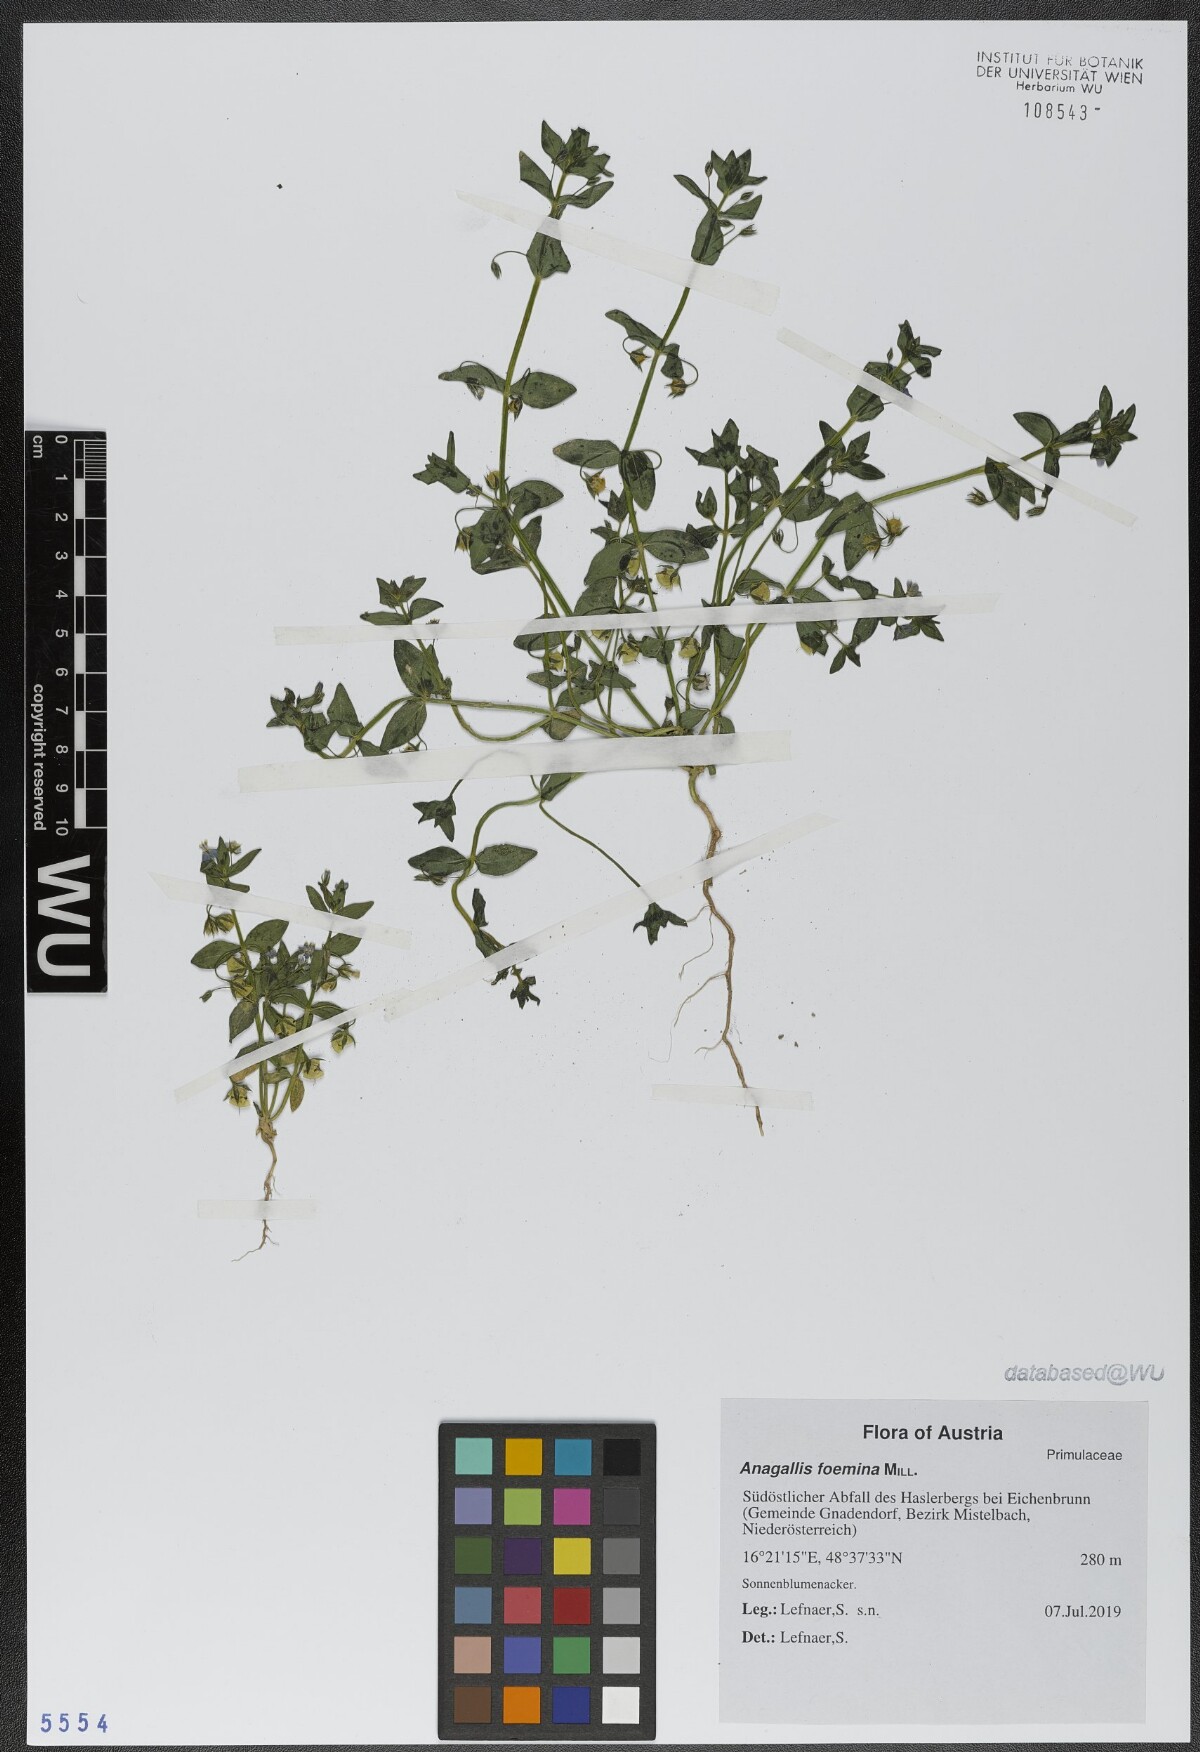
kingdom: Plantae
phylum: Tracheophyta
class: Magnoliopsida
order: Ericales
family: Primulaceae
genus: Lysimachia
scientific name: Lysimachia foemina
